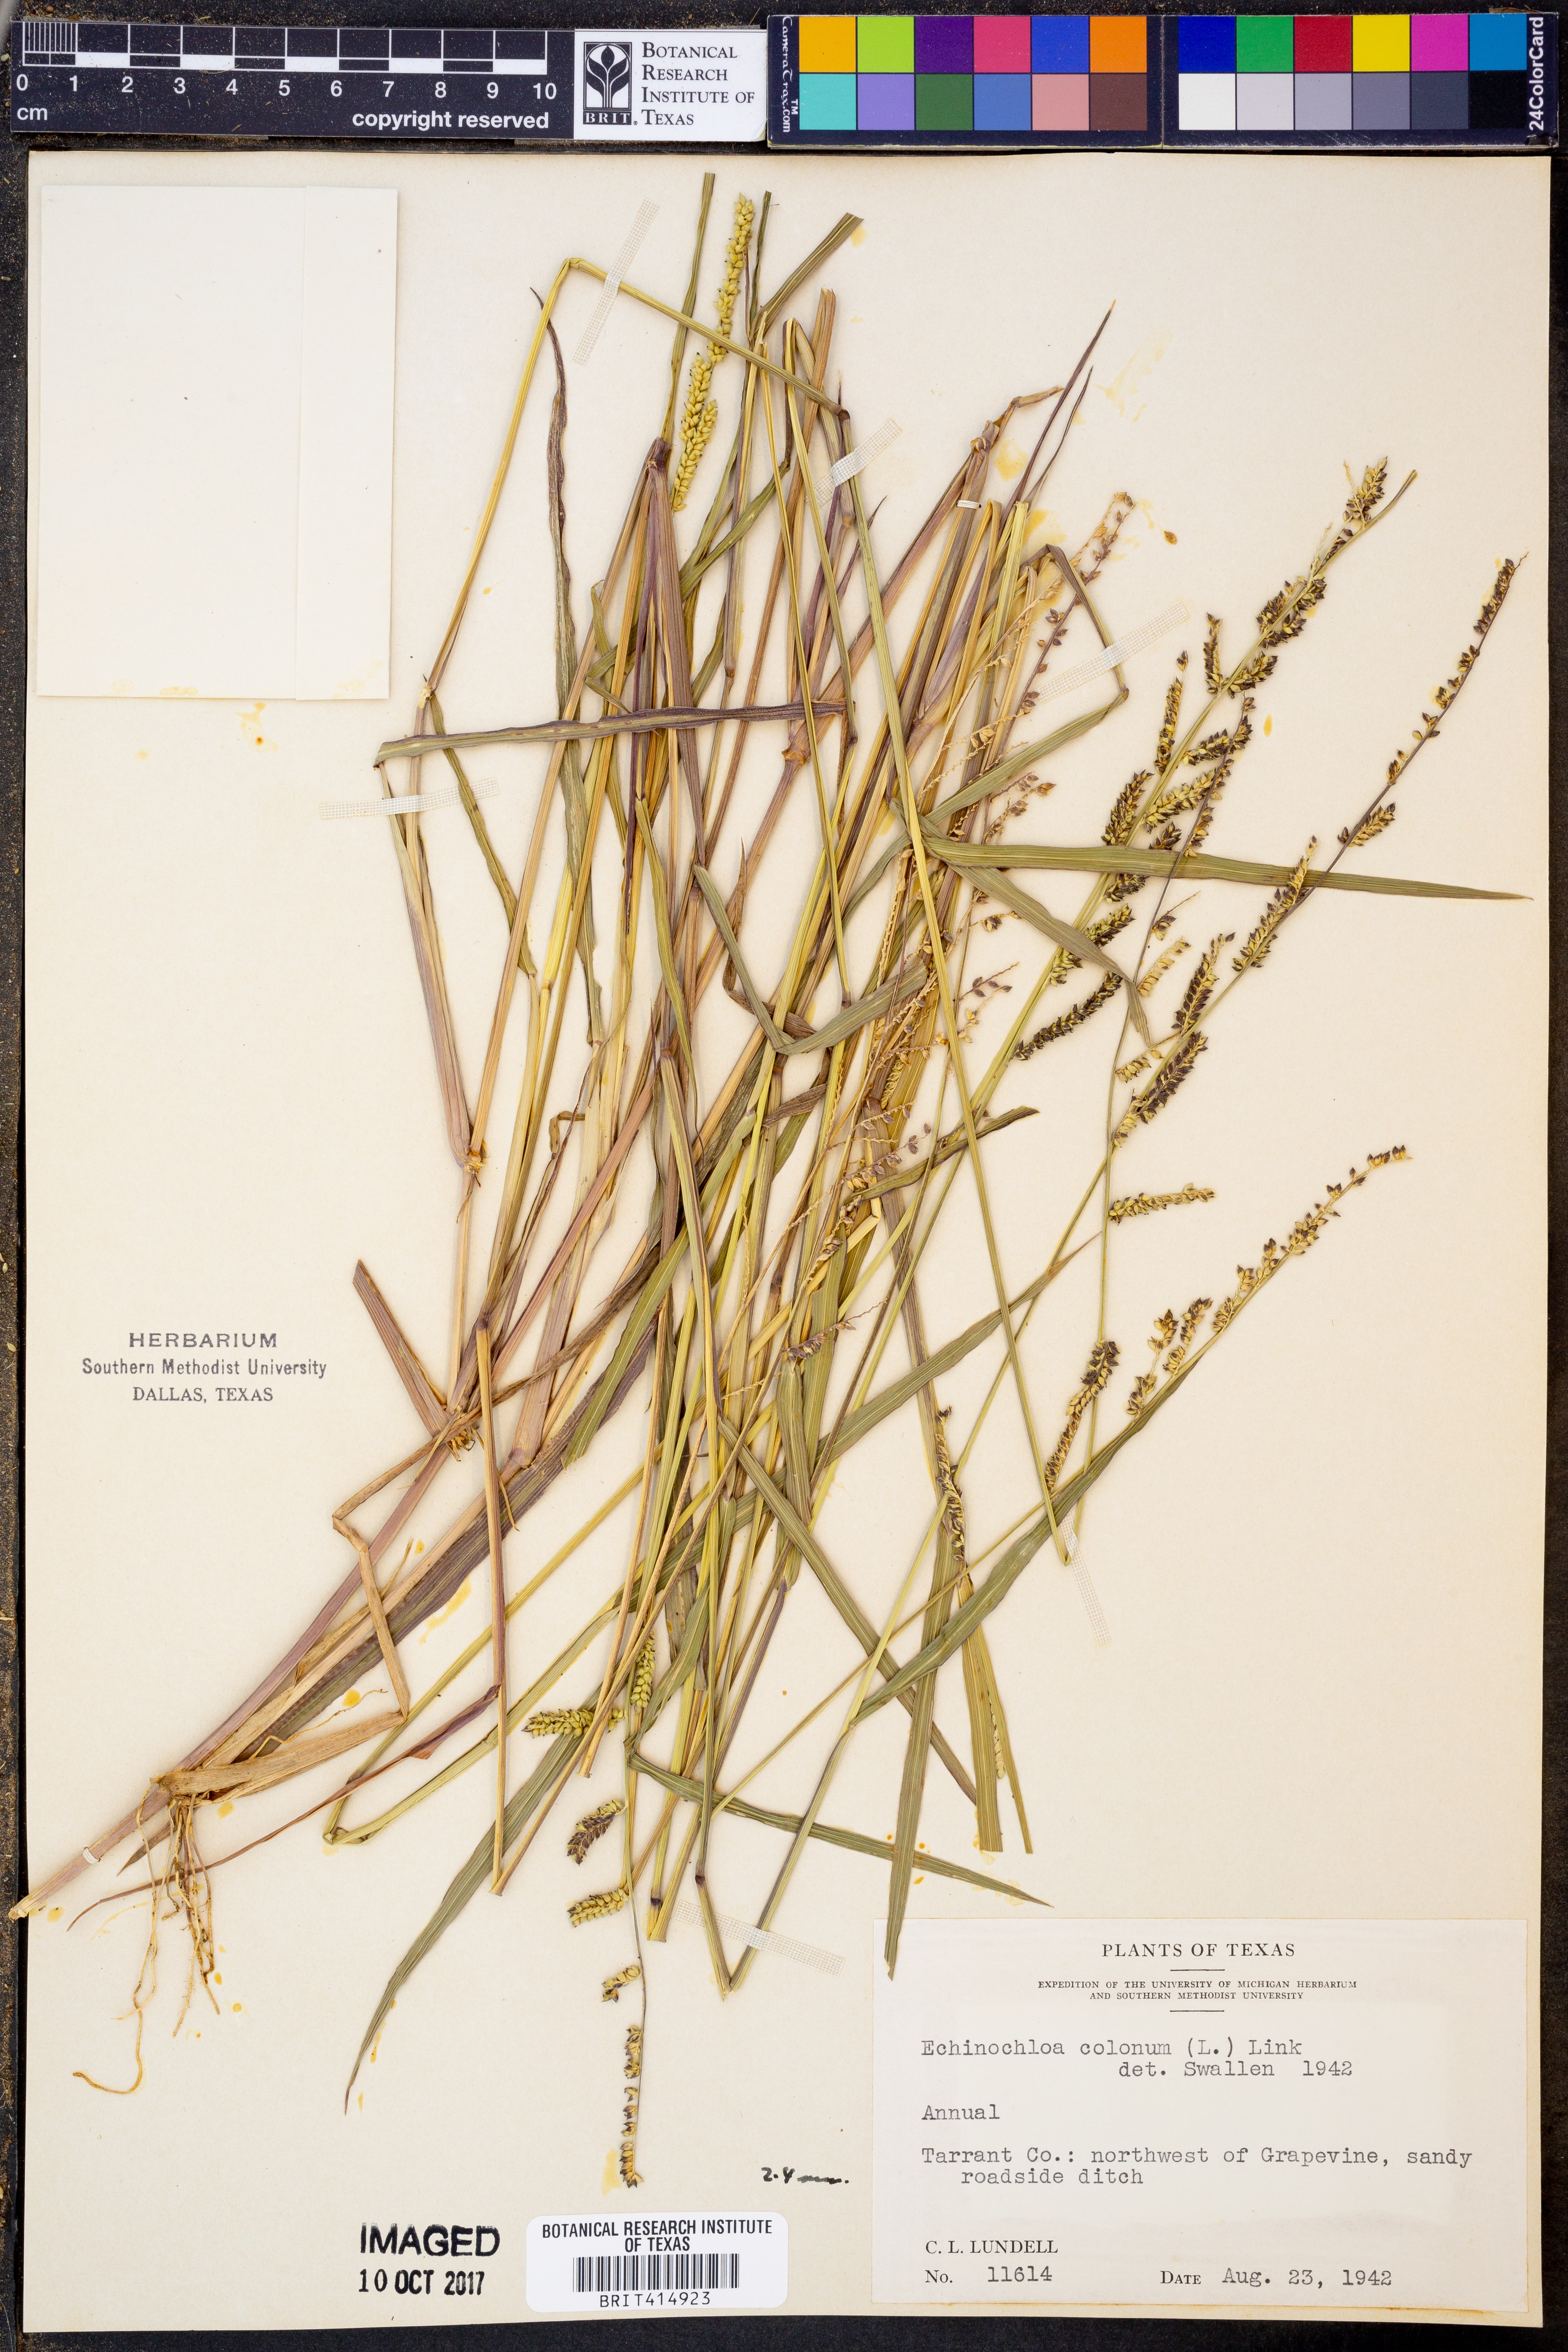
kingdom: Plantae
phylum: Tracheophyta
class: Liliopsida
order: Poales
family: Poaceae
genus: Echinochloa
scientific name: Echinochloa colonum
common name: Jungle rice
